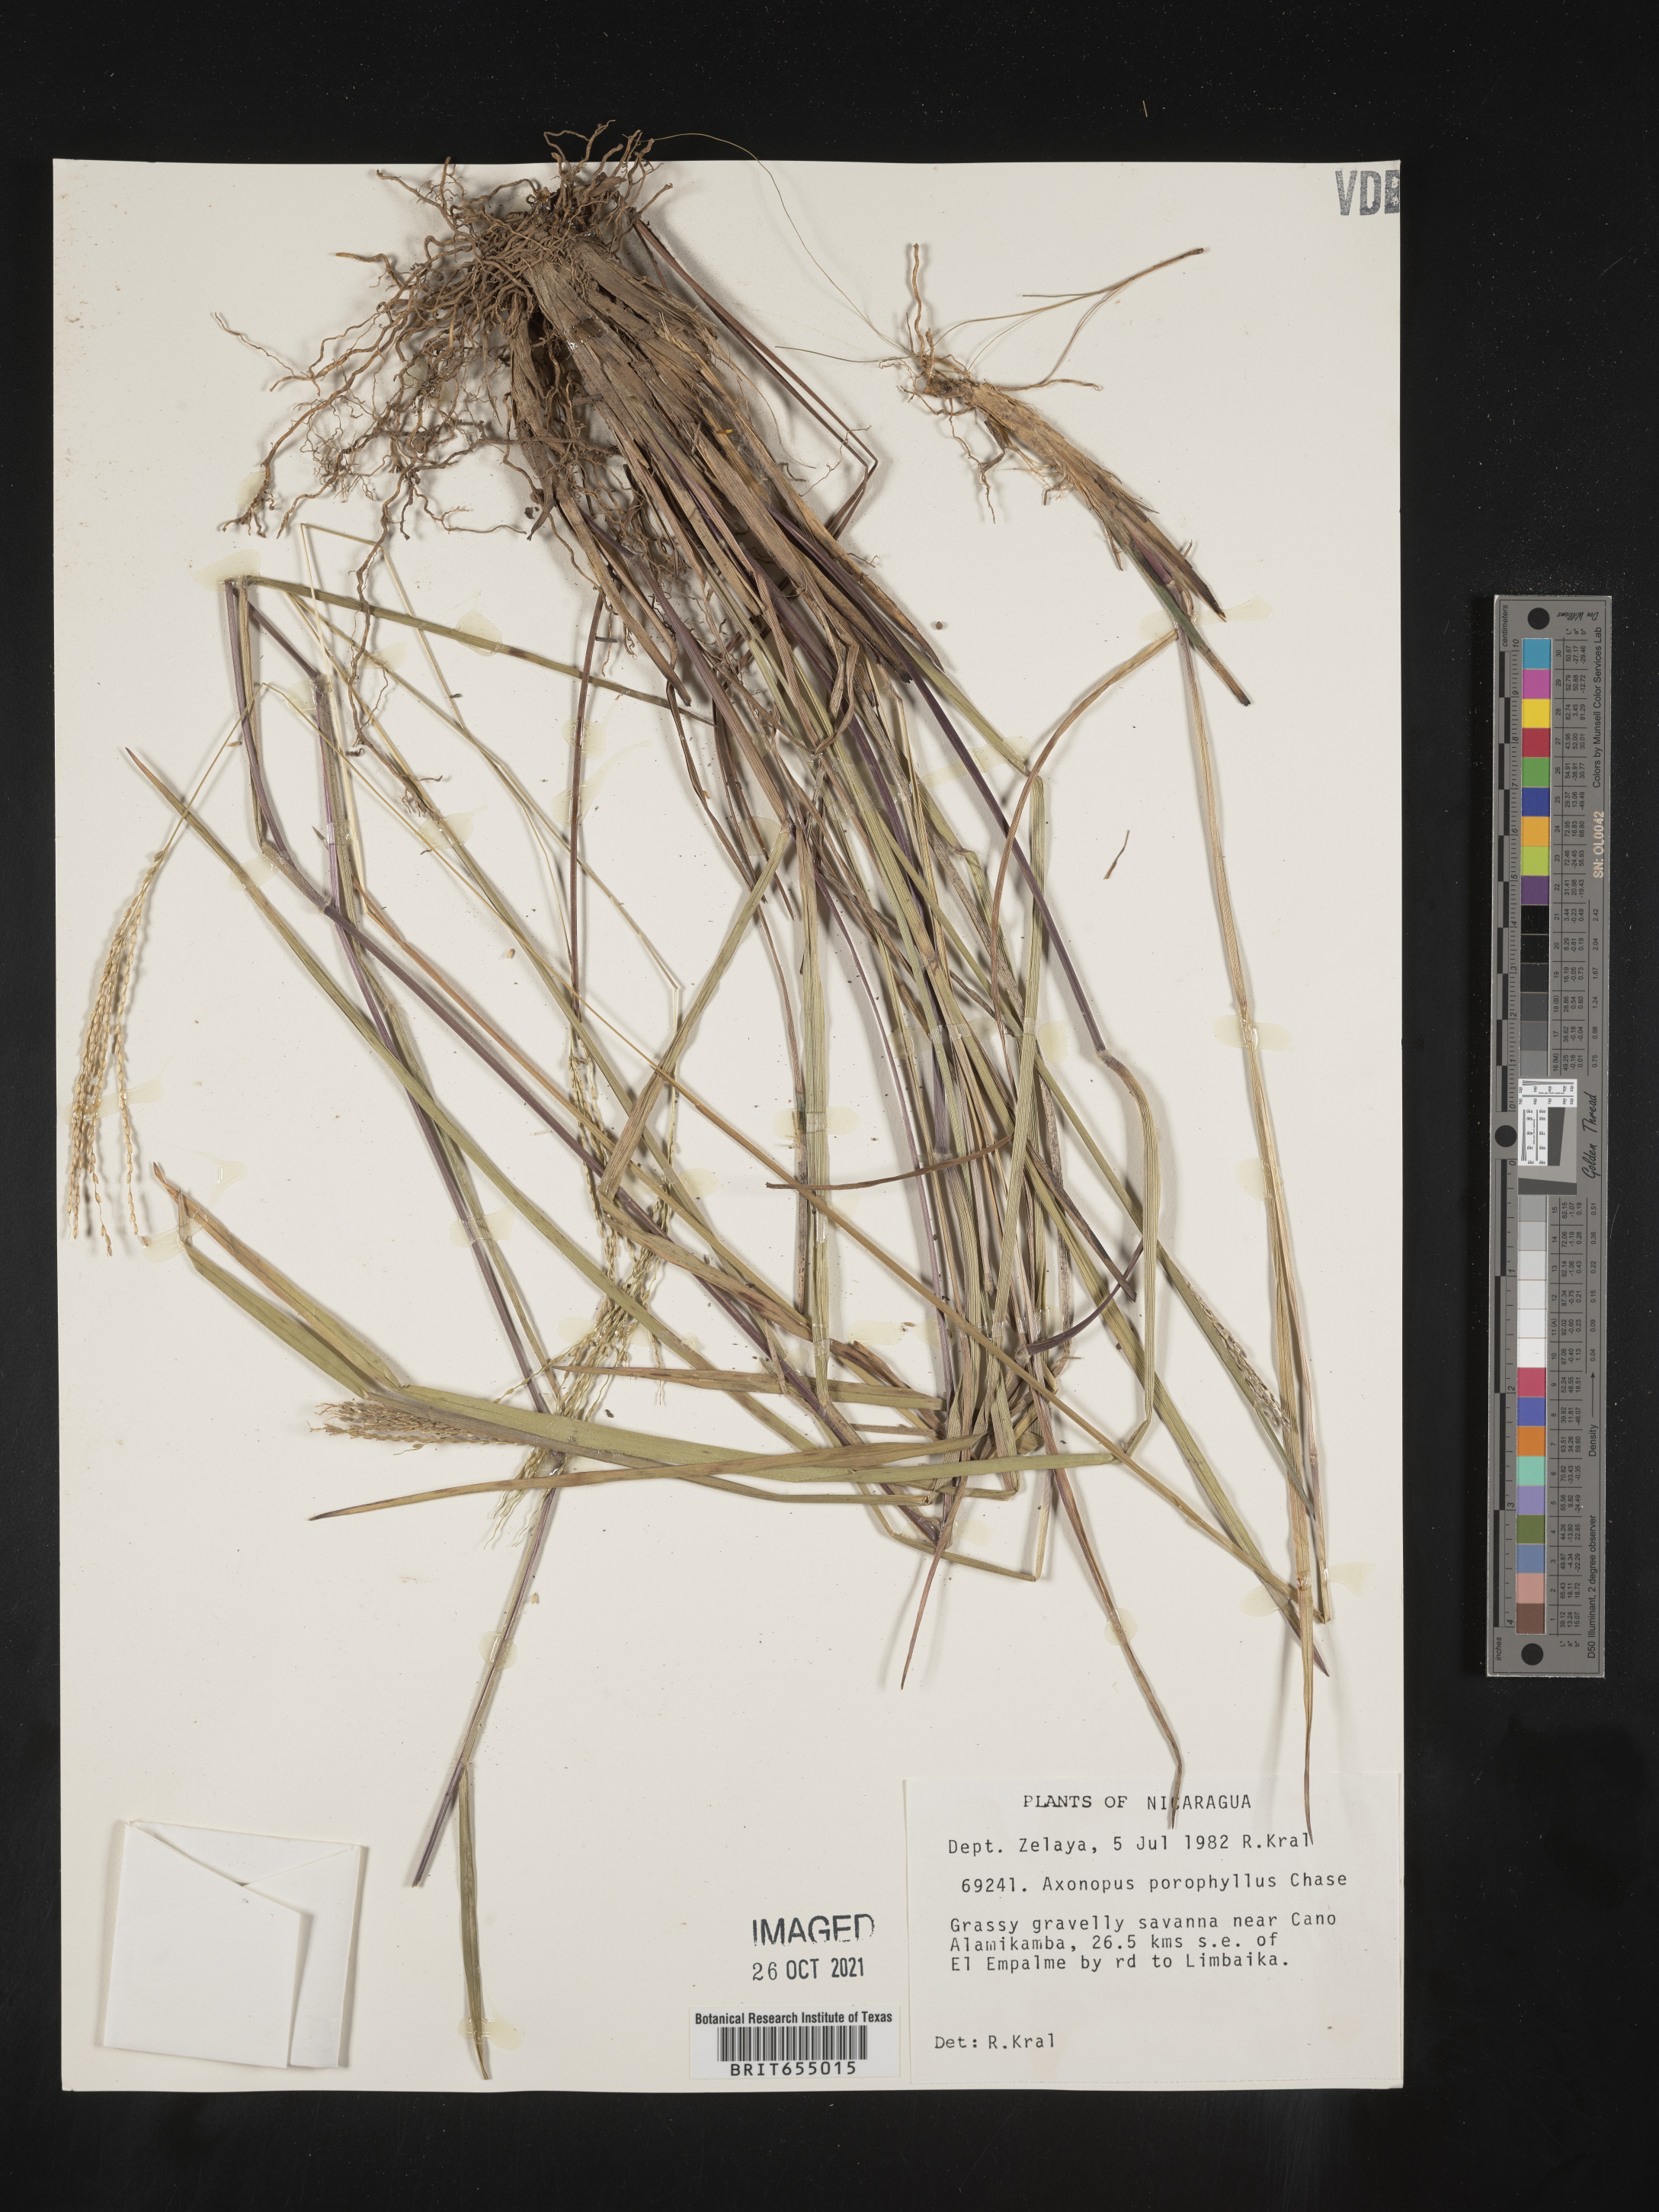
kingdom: Plantae
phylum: Tracheophyta
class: Liliopsida
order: Poales
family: Poaceae
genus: Axonopus
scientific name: Axonopus
